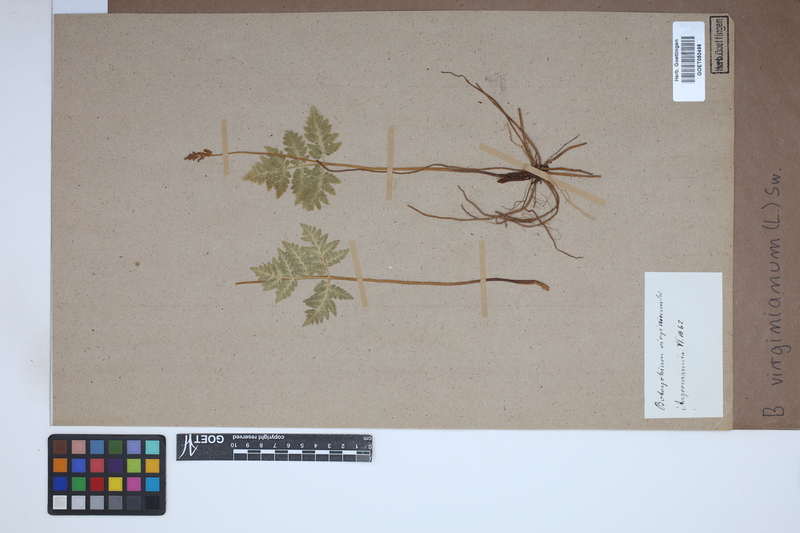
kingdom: Plantae
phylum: Tracheophyta
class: Polypodiopsida
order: Ophioglossales
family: Ophioglossaceae
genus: Botrychium
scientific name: Botrychium virginianum
